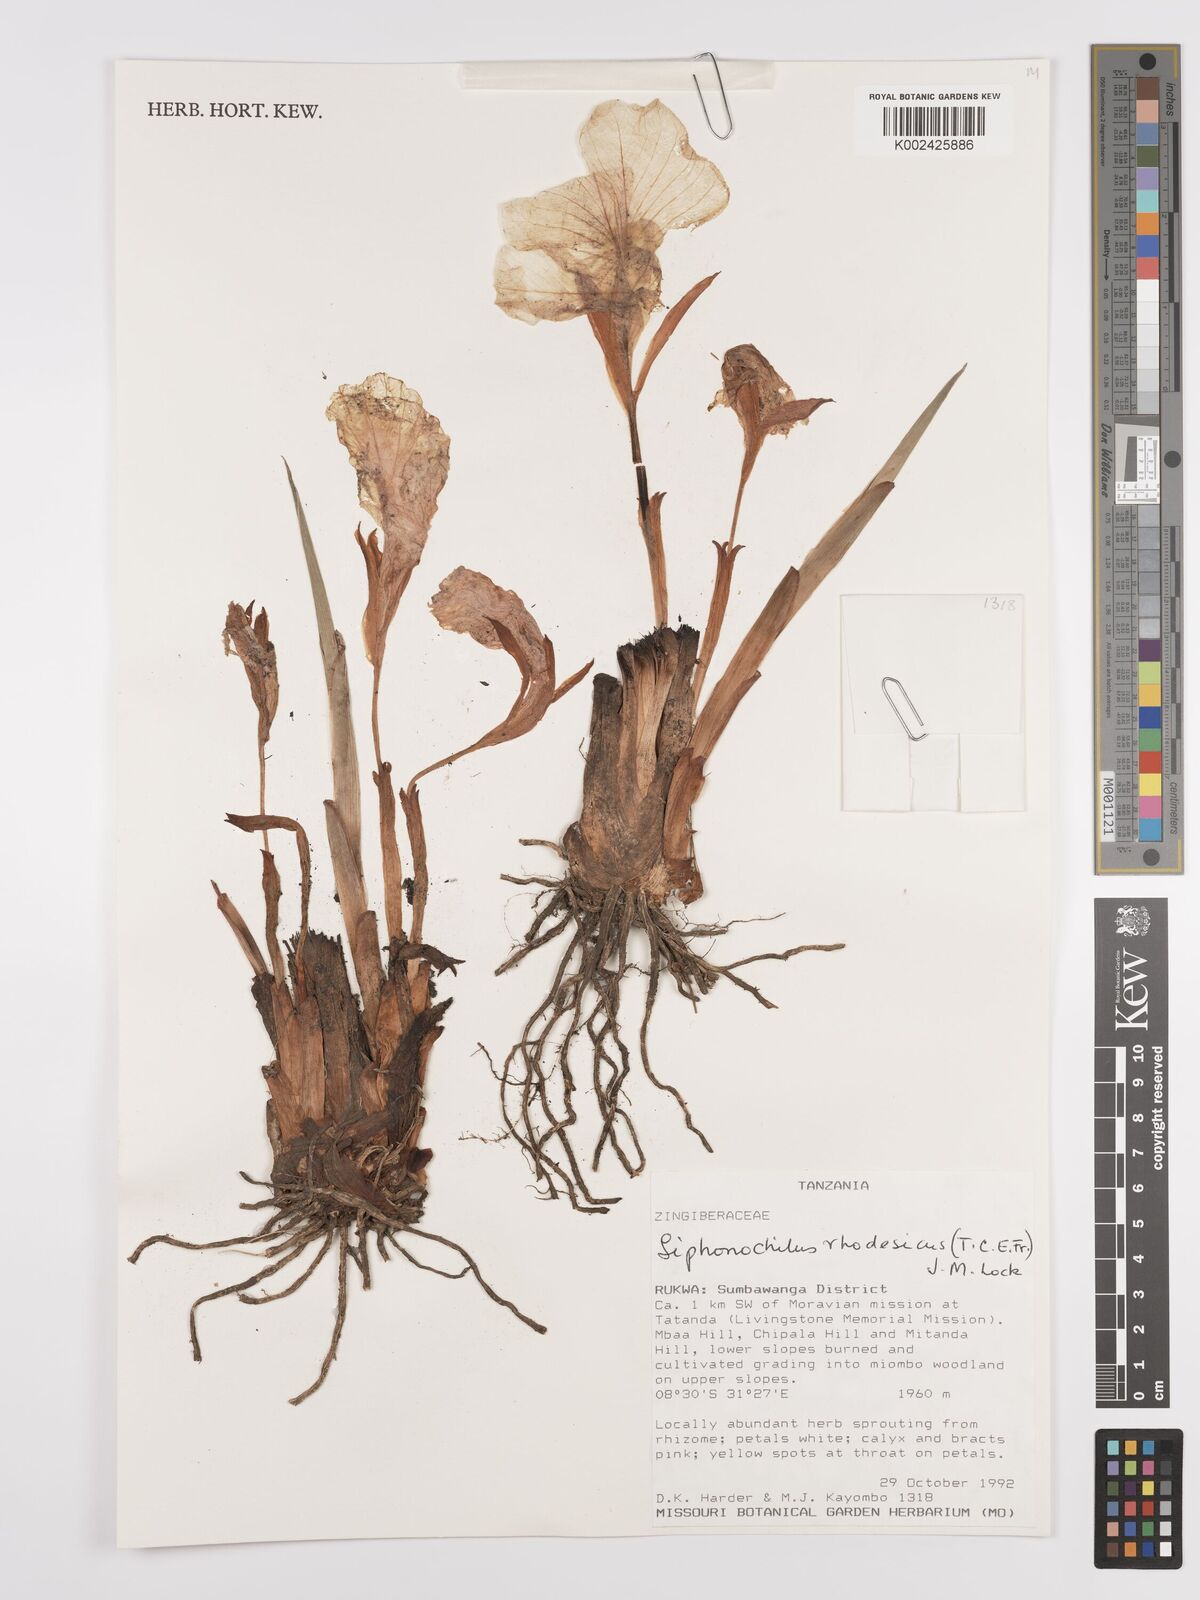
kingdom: Plantae
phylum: Tracheophyta
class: Liliopsida
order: Zingiberales
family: Zingiberaceae
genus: Siphonochilus
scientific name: Siphonochilus rhodesicus
